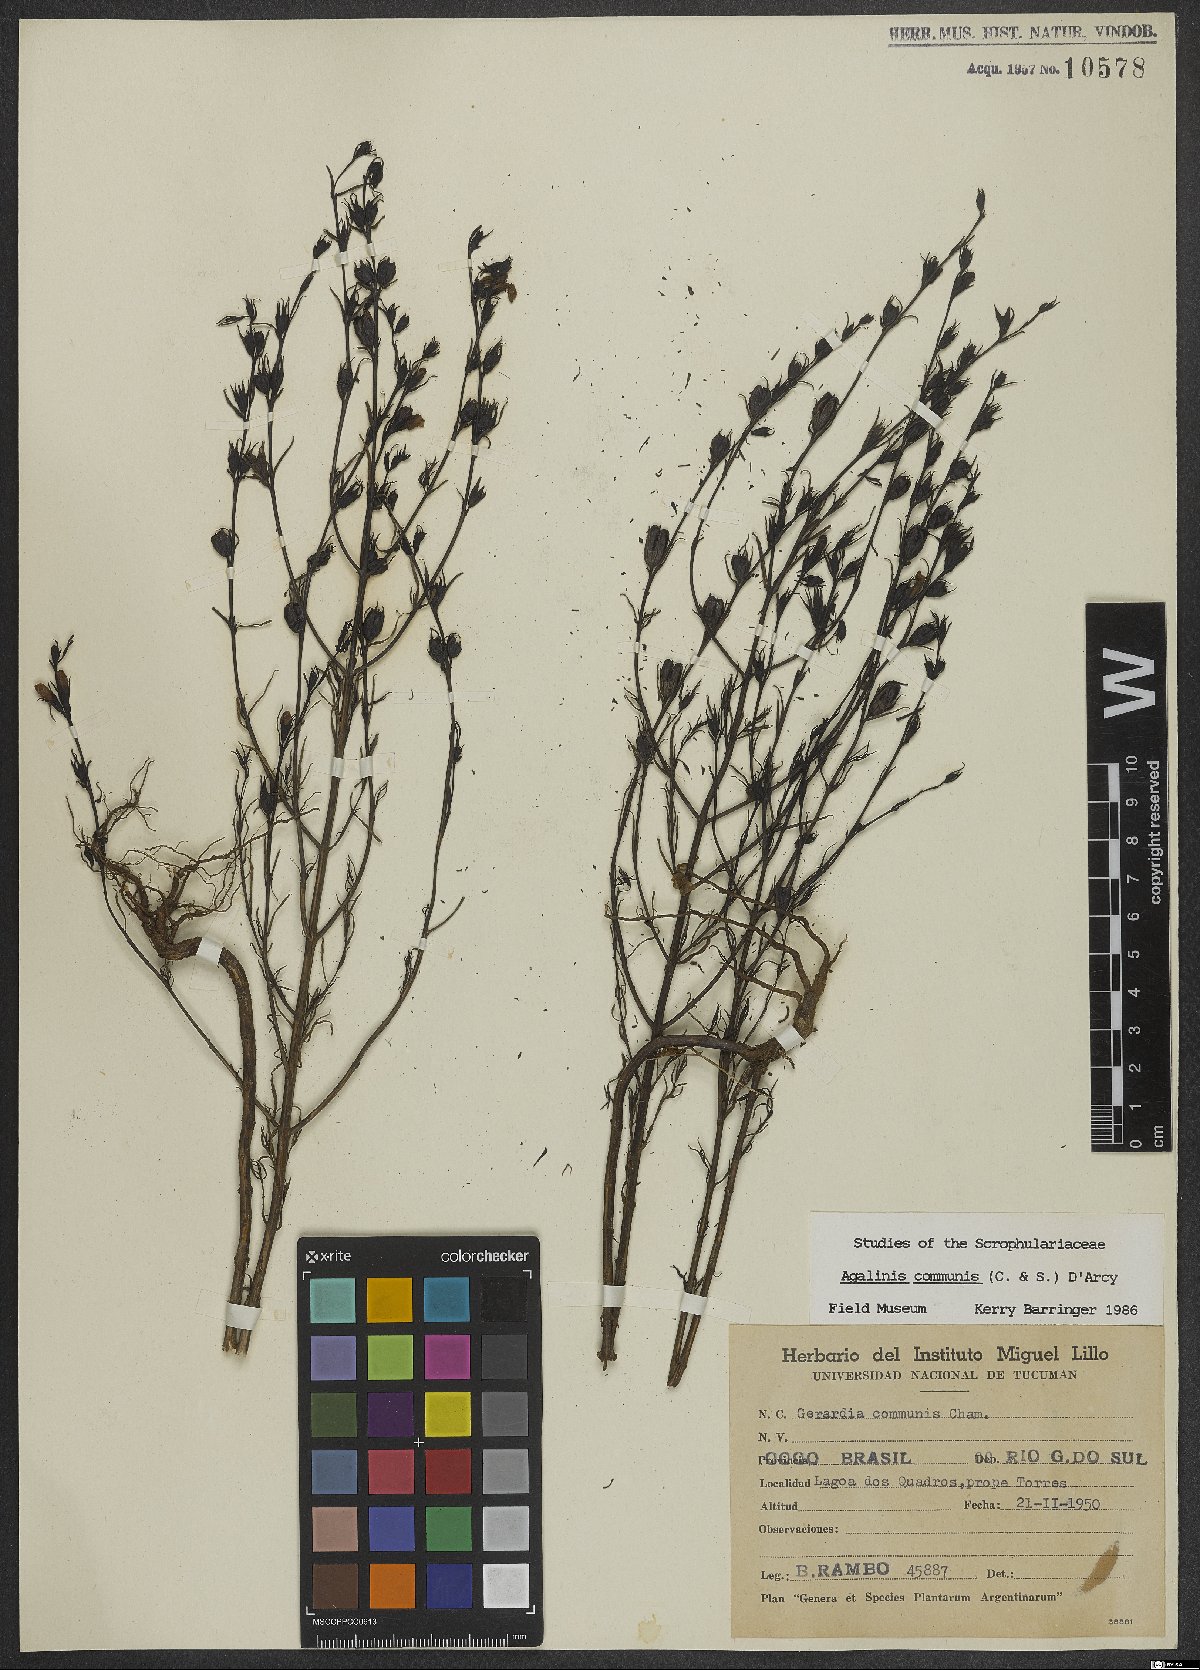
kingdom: Plantae
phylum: Tracheophyta
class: Magnoliopsida
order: Lamiales
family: Scrophulariaceae
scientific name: Scrophulariaceae
